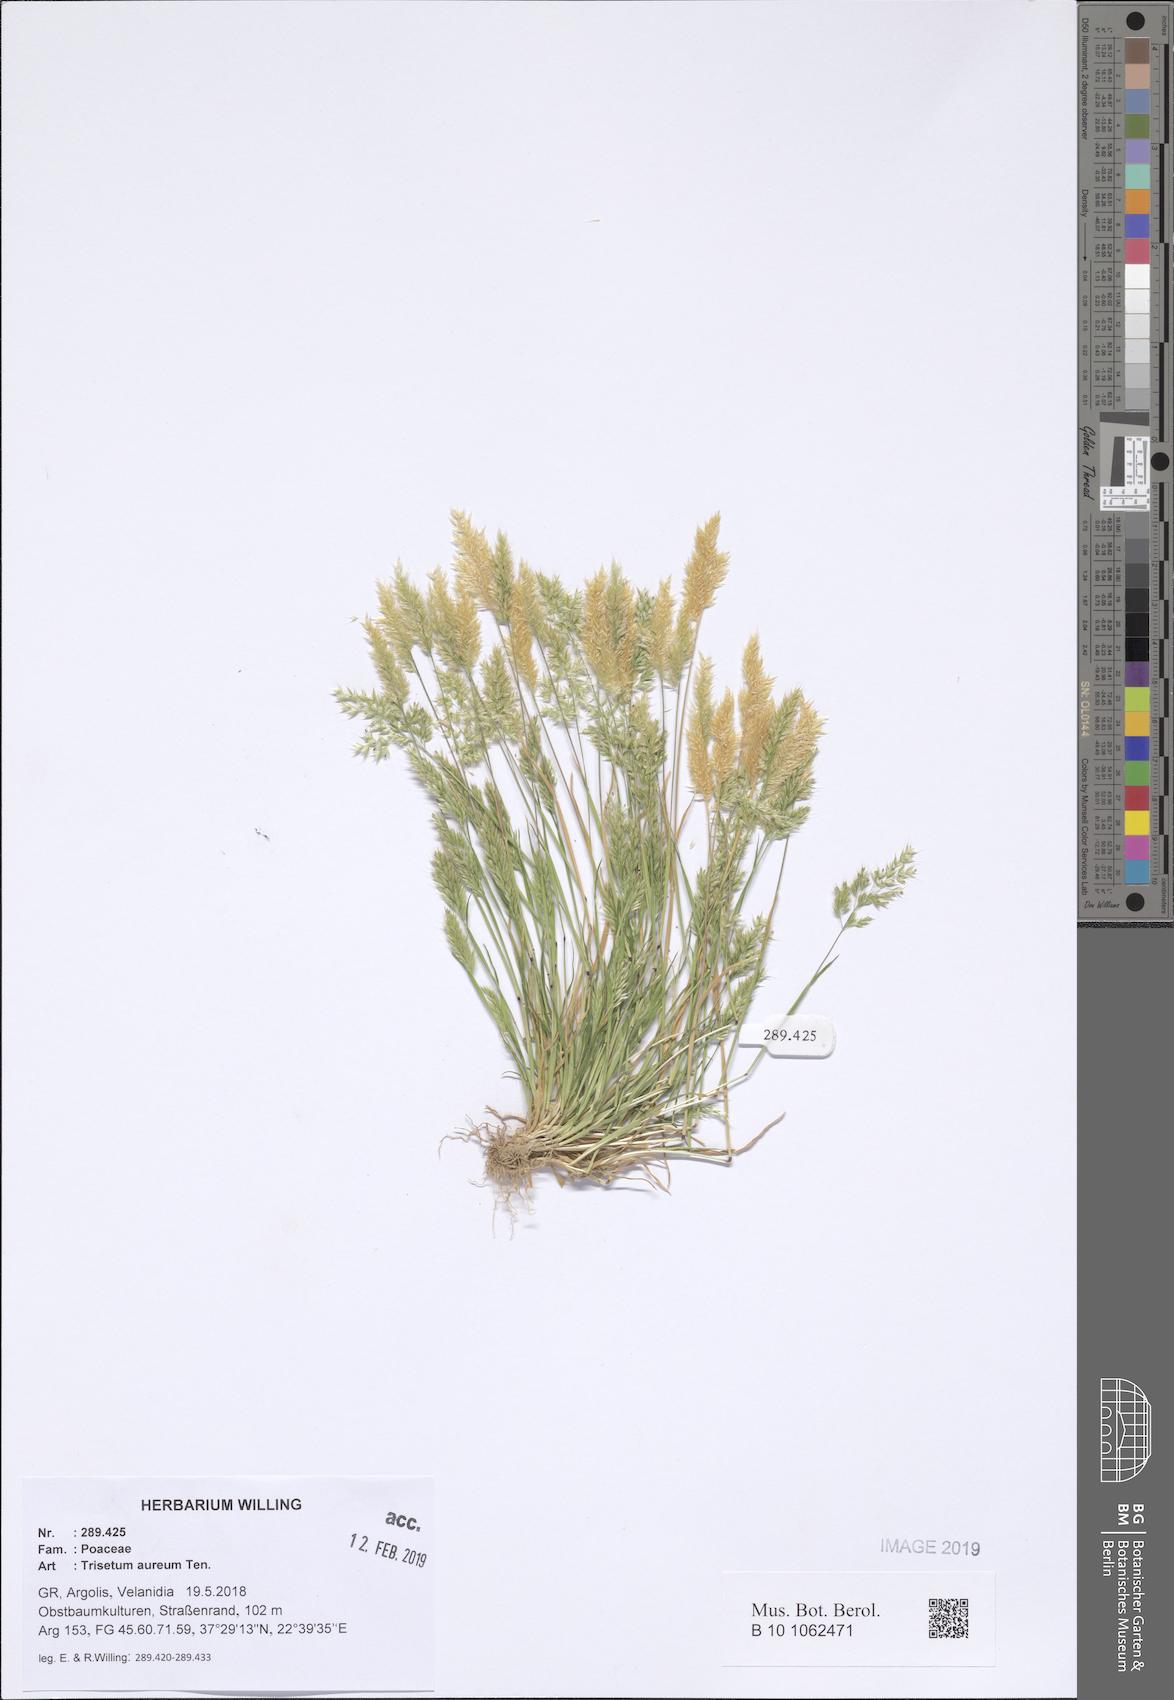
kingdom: Plantae
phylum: Tracheophyta
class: Liliopsida
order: Poales
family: Poaceae
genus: Trisetaria
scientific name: Trisetaria aurea
